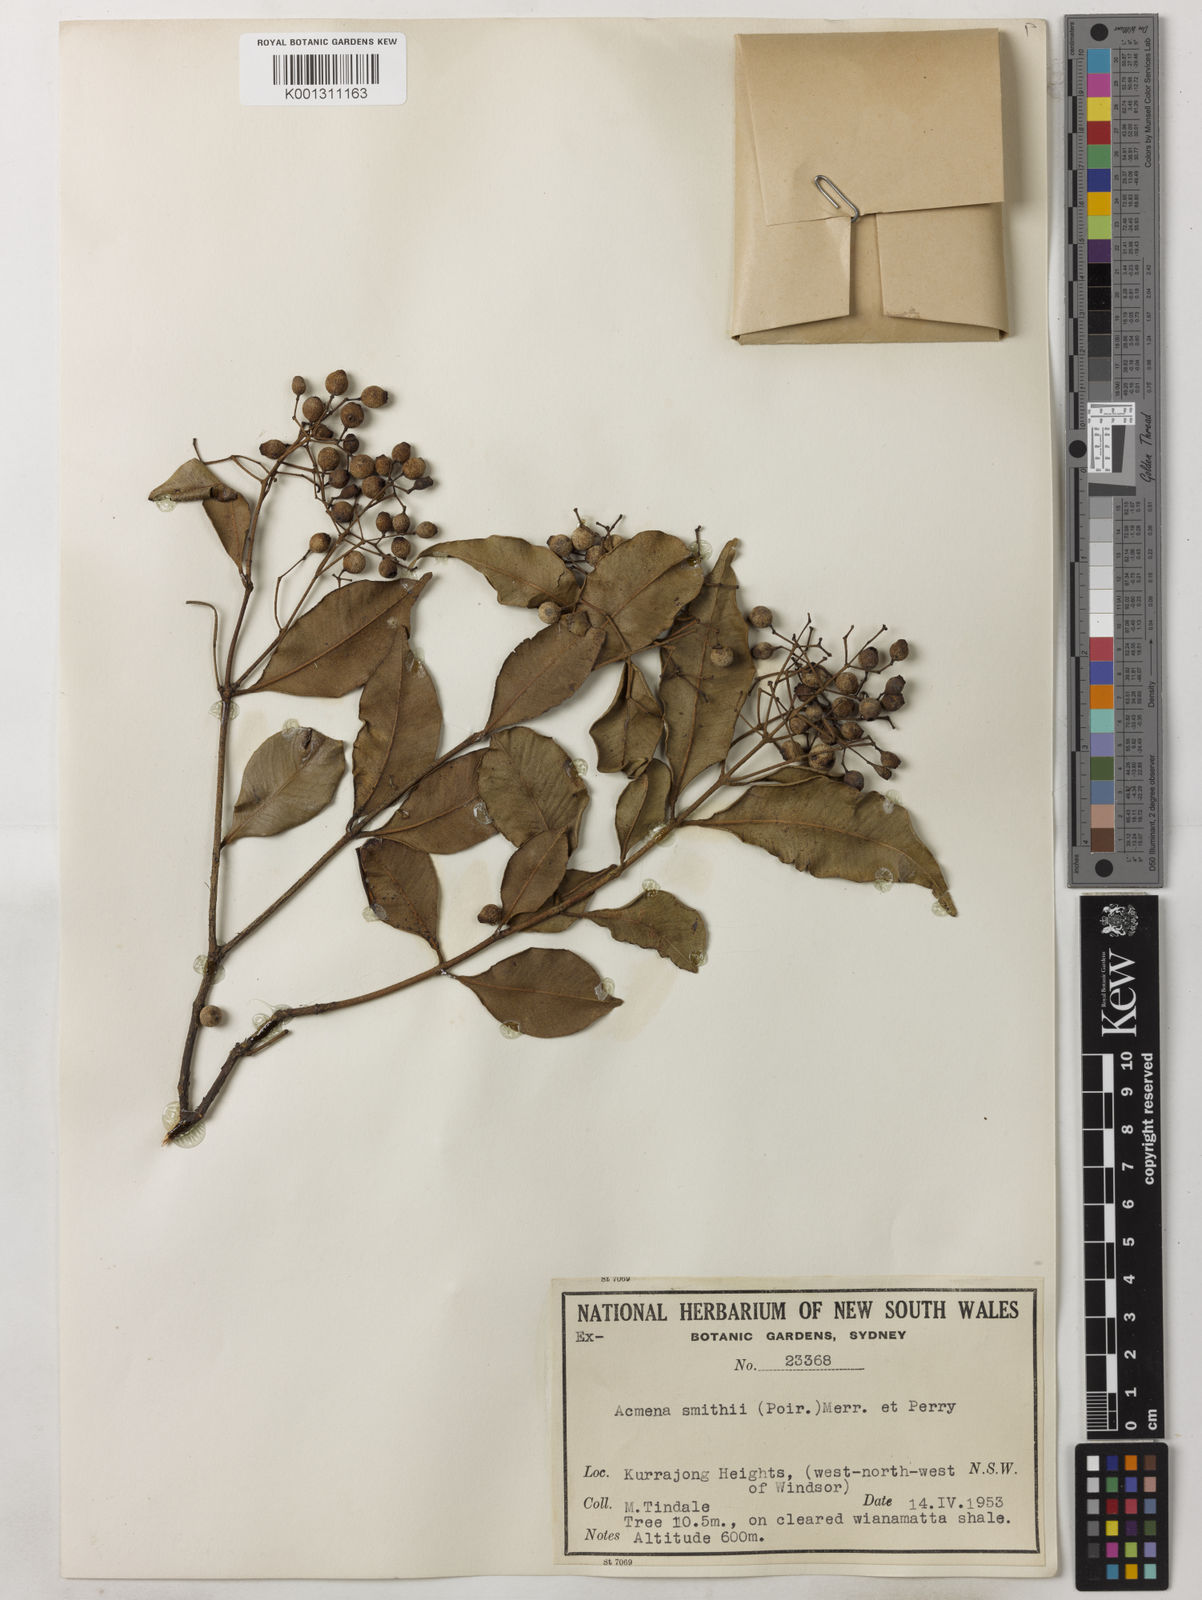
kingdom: Plantae
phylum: Tracheophyta
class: Magnoliopsida
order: Myrtales
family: Myrtaceae
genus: Syzygium
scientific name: Syzygium smithii
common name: Lilly-pilly
